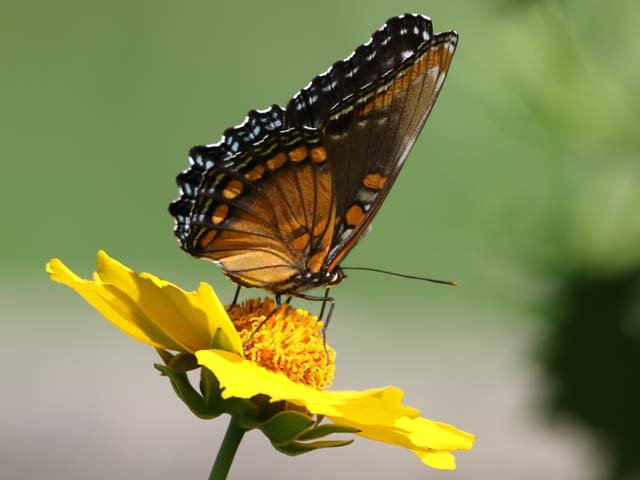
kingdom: Animalia
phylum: Arthropoda
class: Insecta
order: Lepidoptera
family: Nymphalidae
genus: Limenitis
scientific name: Limenitis astyanax
